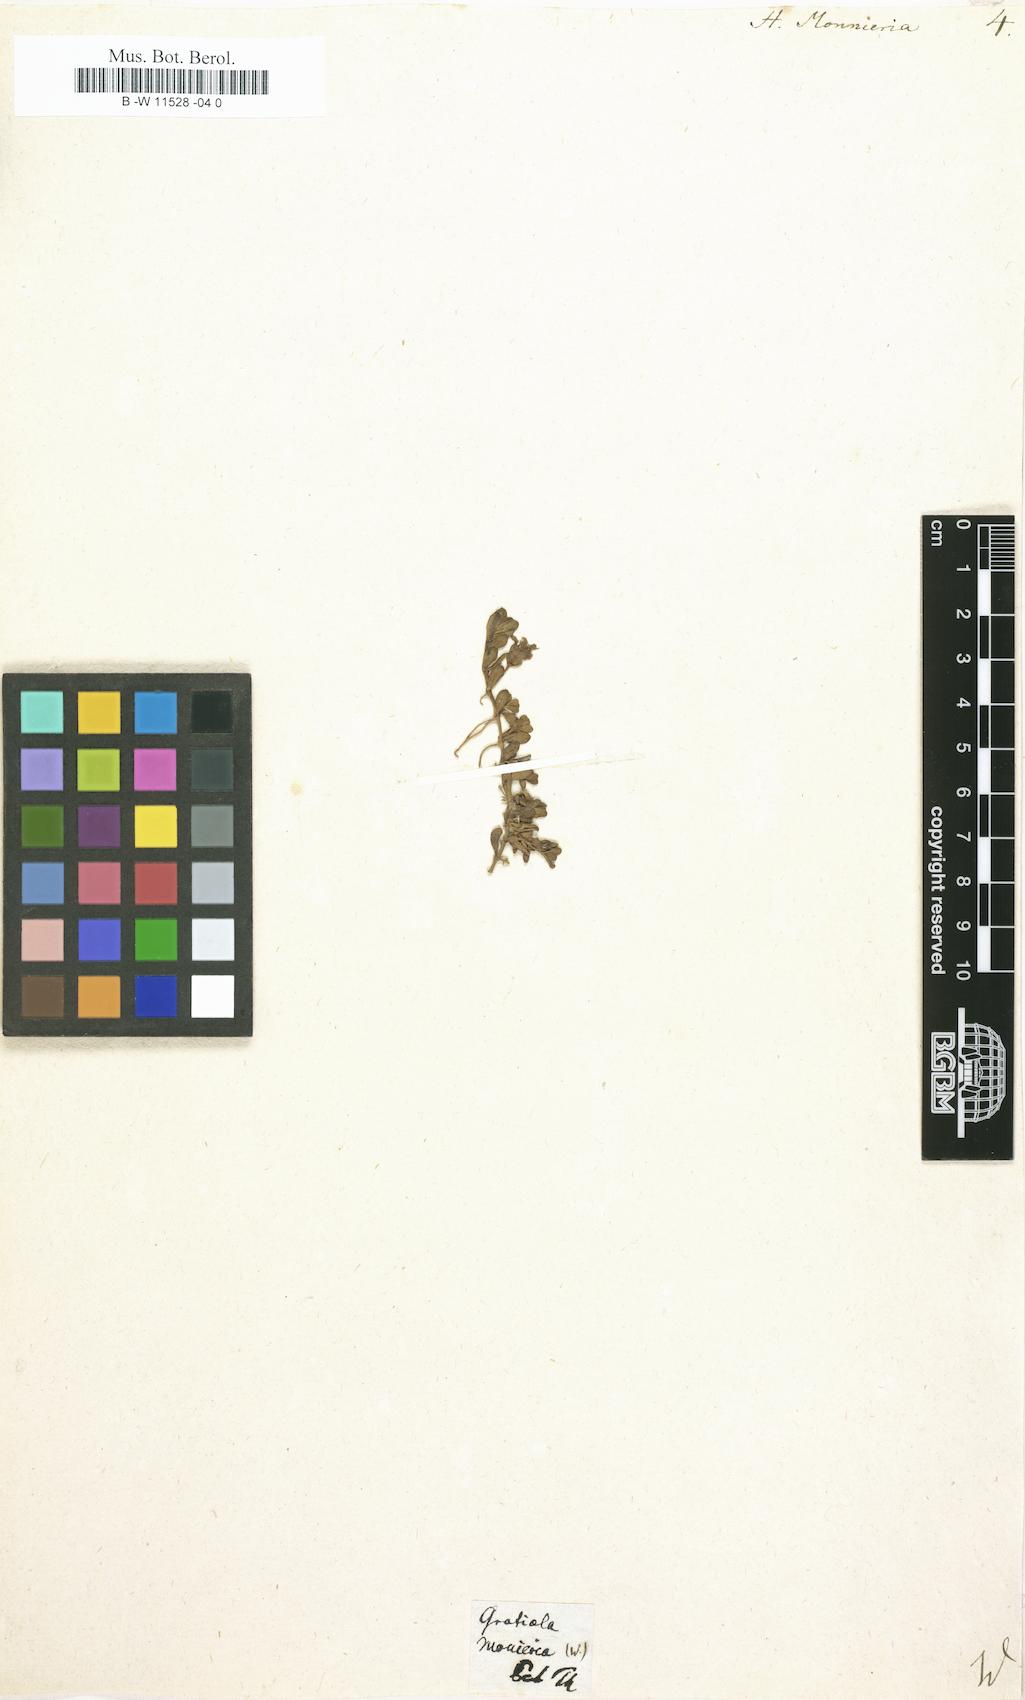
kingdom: Plantae
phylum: Tracheophyta
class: Magnoliopsida
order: Lamiales
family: Plantaginaceae
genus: Bacopa
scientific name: Bacopa monnieri
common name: Indian-pennywort
